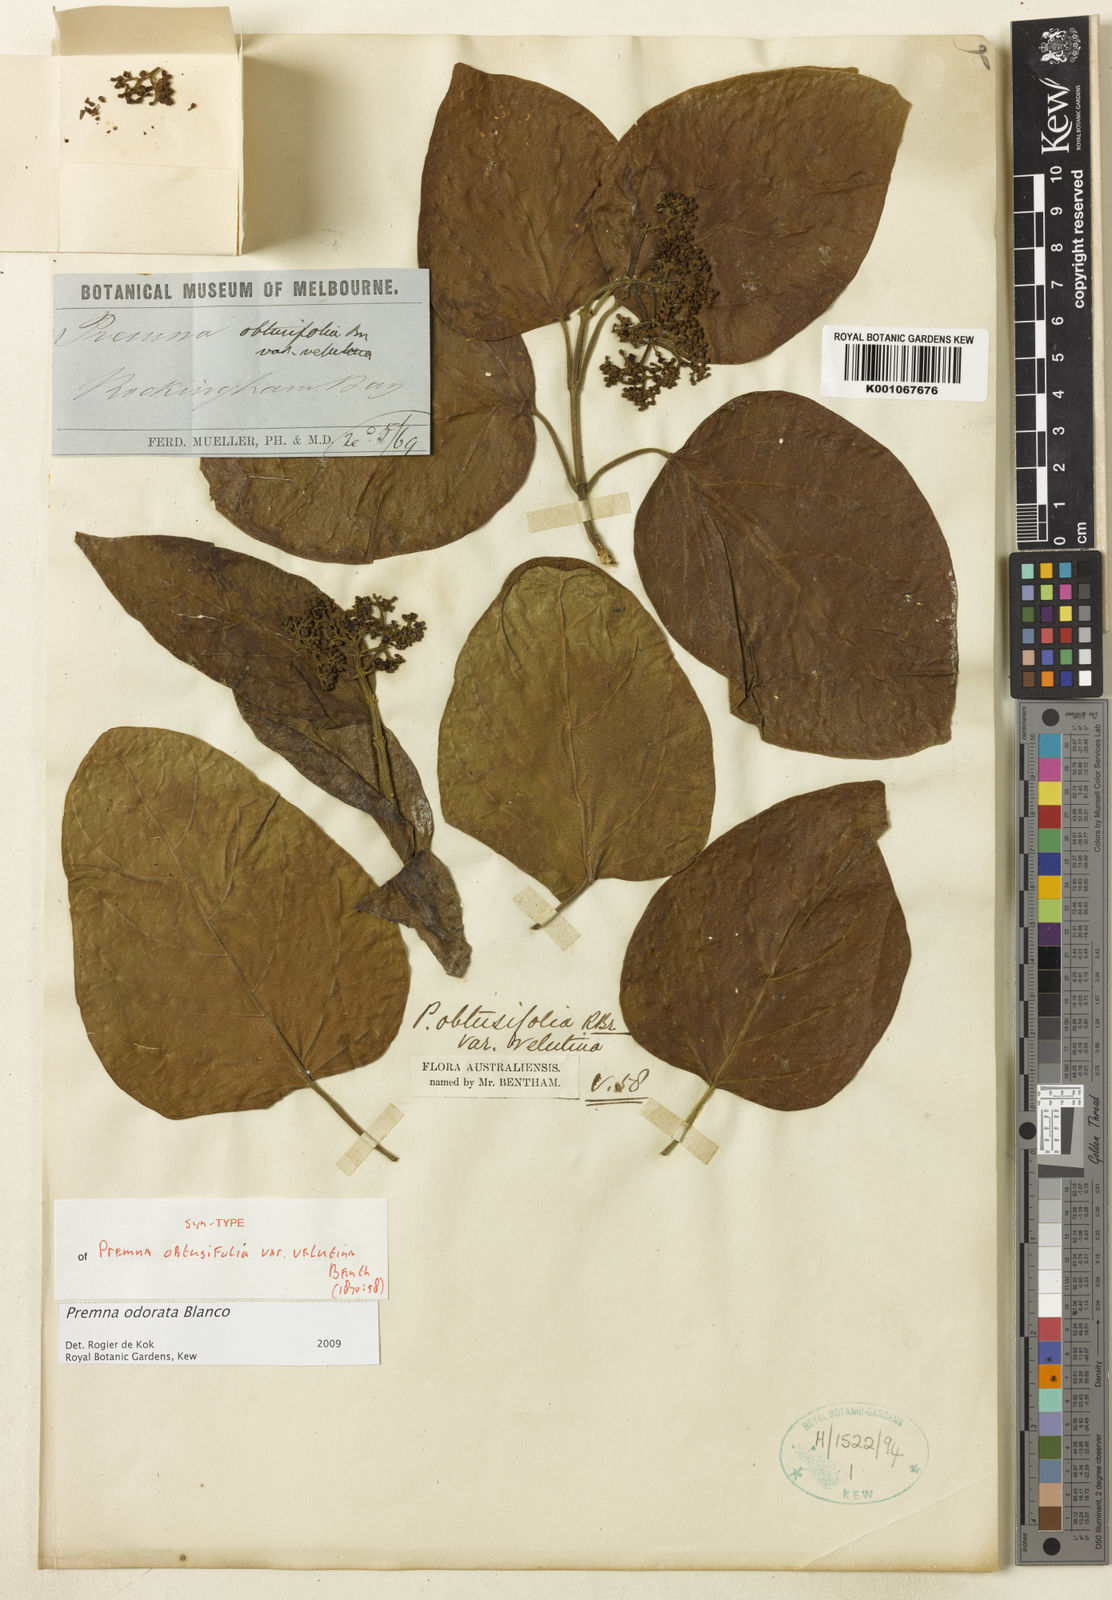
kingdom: Plantae
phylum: Tracheophyta
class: Magnoliopsida
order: Lamiales
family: Lamiaceae
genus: Premna
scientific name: Premna odorata
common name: Fragrant premna
